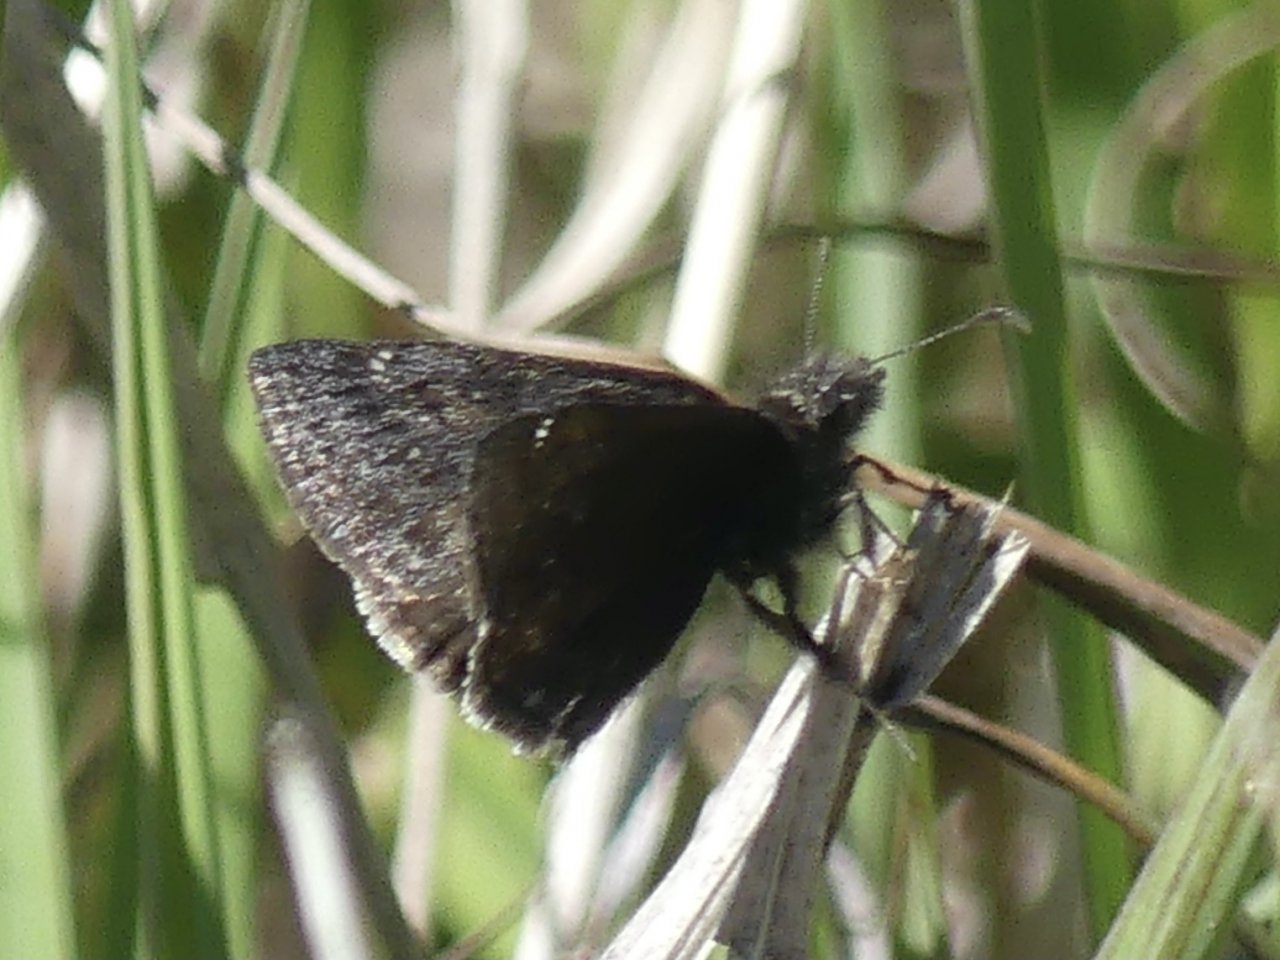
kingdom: Animalia
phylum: Arthropoda
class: Insecta
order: Lepidoptera
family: Hesperiidae
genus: Erynnis
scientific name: Erynnis
